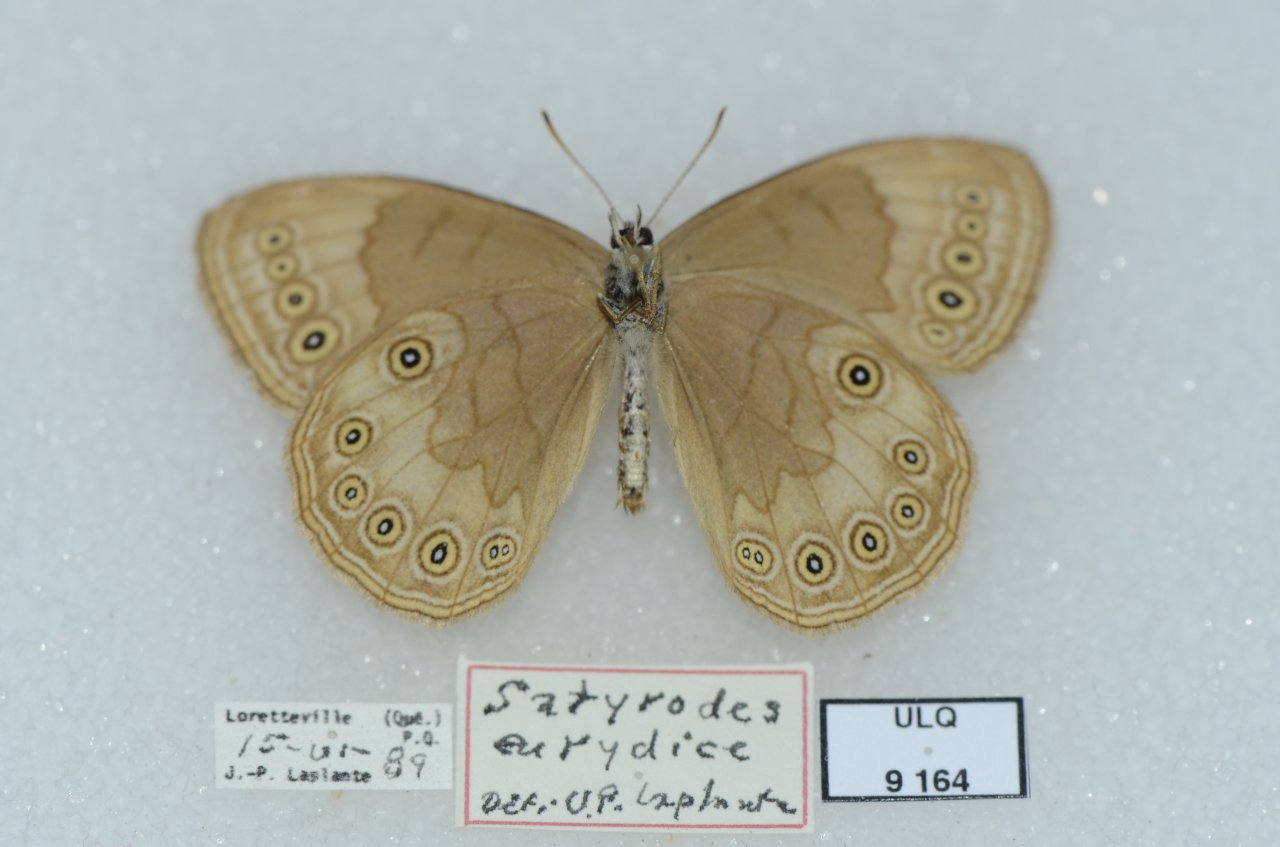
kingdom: Animalia
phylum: Arthropoda
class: Insecta
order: Lepidoptera
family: Nymphalidae
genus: Lethe
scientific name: Lethe eurydice
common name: Eyed Brown
